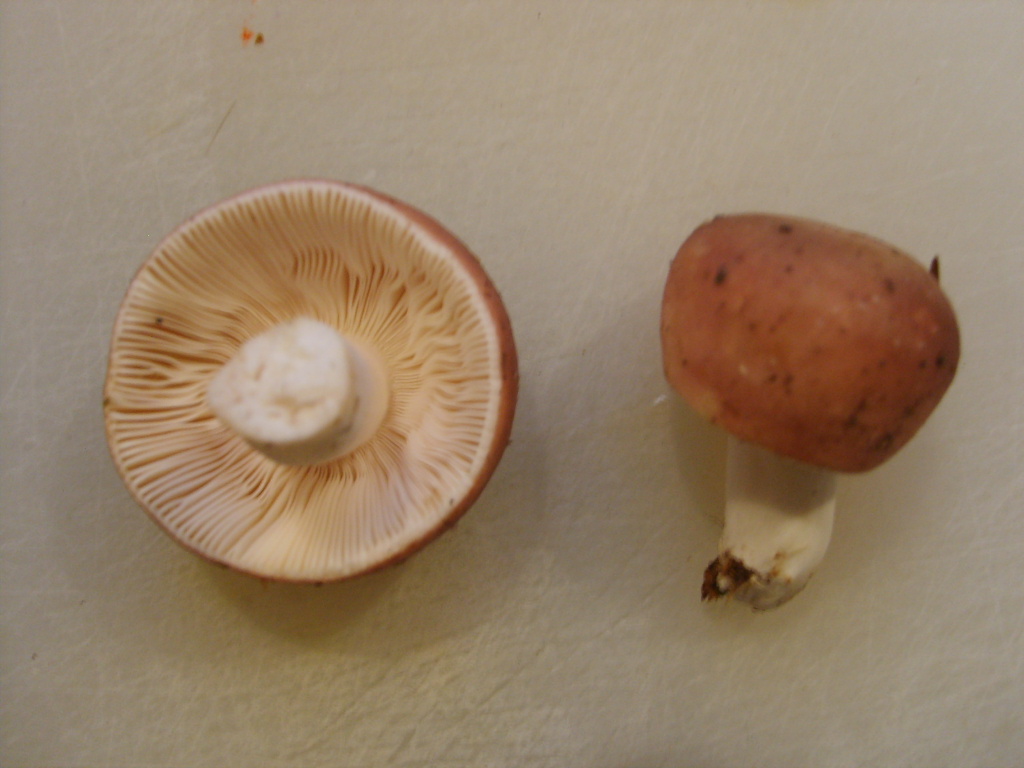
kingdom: Fungi
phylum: Basidiomycota
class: Agaricomycetes
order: Russulales
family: Russulaceae
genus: Russula
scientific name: Russula cyanoxantha
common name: broget skørhat
